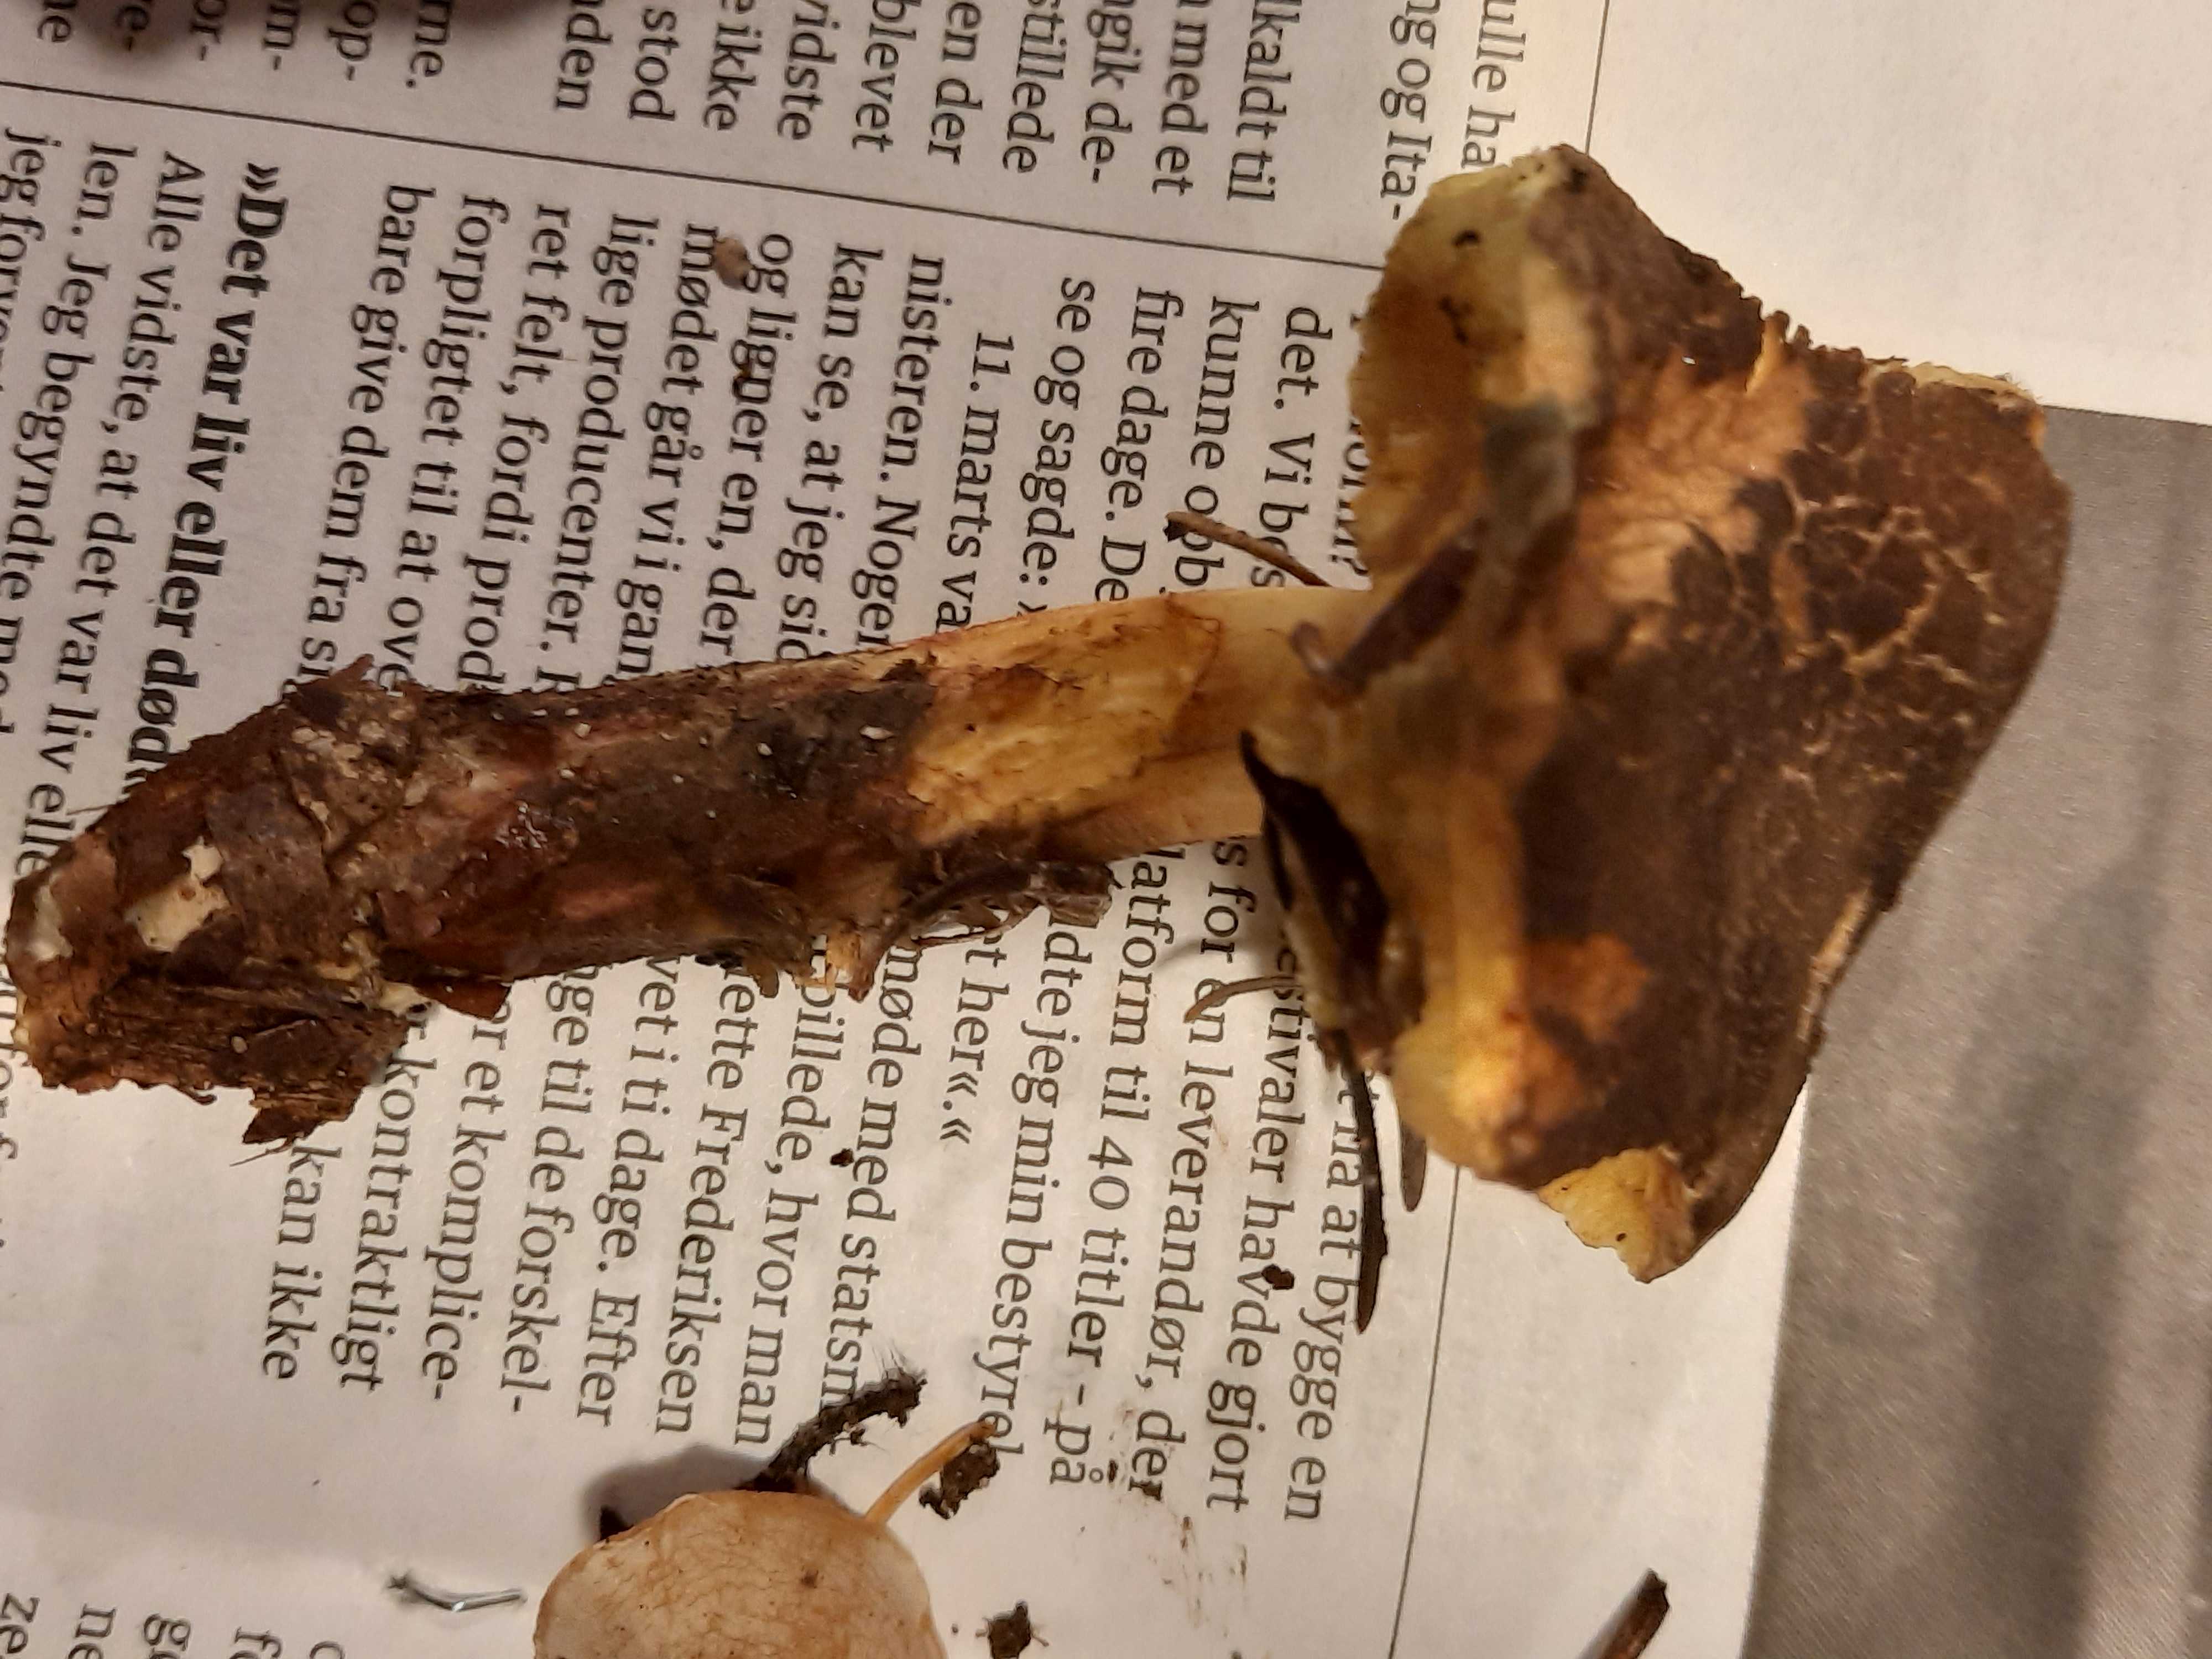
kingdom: Fungi
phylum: Basidiomycota
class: Agaricomycetes
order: Boletales
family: Boletaceae
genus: Xerocomus
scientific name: Xerocomus ferrugineus
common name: vaskeskinds-rørhat
